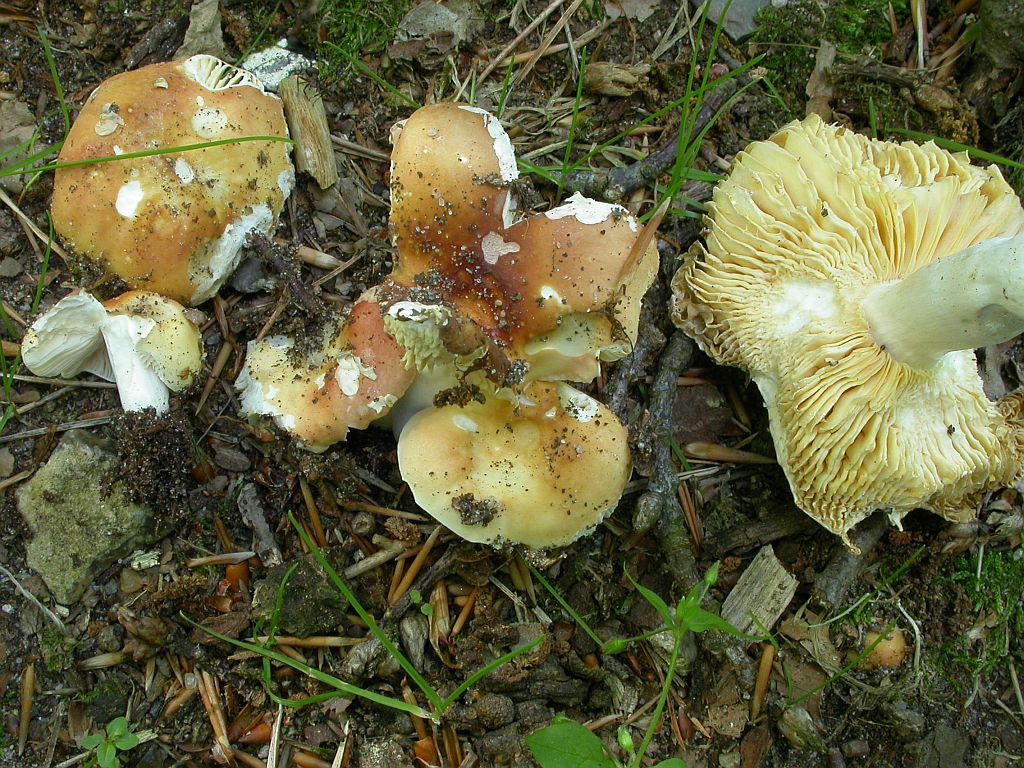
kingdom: Fungi
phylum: Basidiomycota
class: Agaricomycetes
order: Russulales
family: Russulaceae
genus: Russula
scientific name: Russula risigallina
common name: abrikos-skørhat
